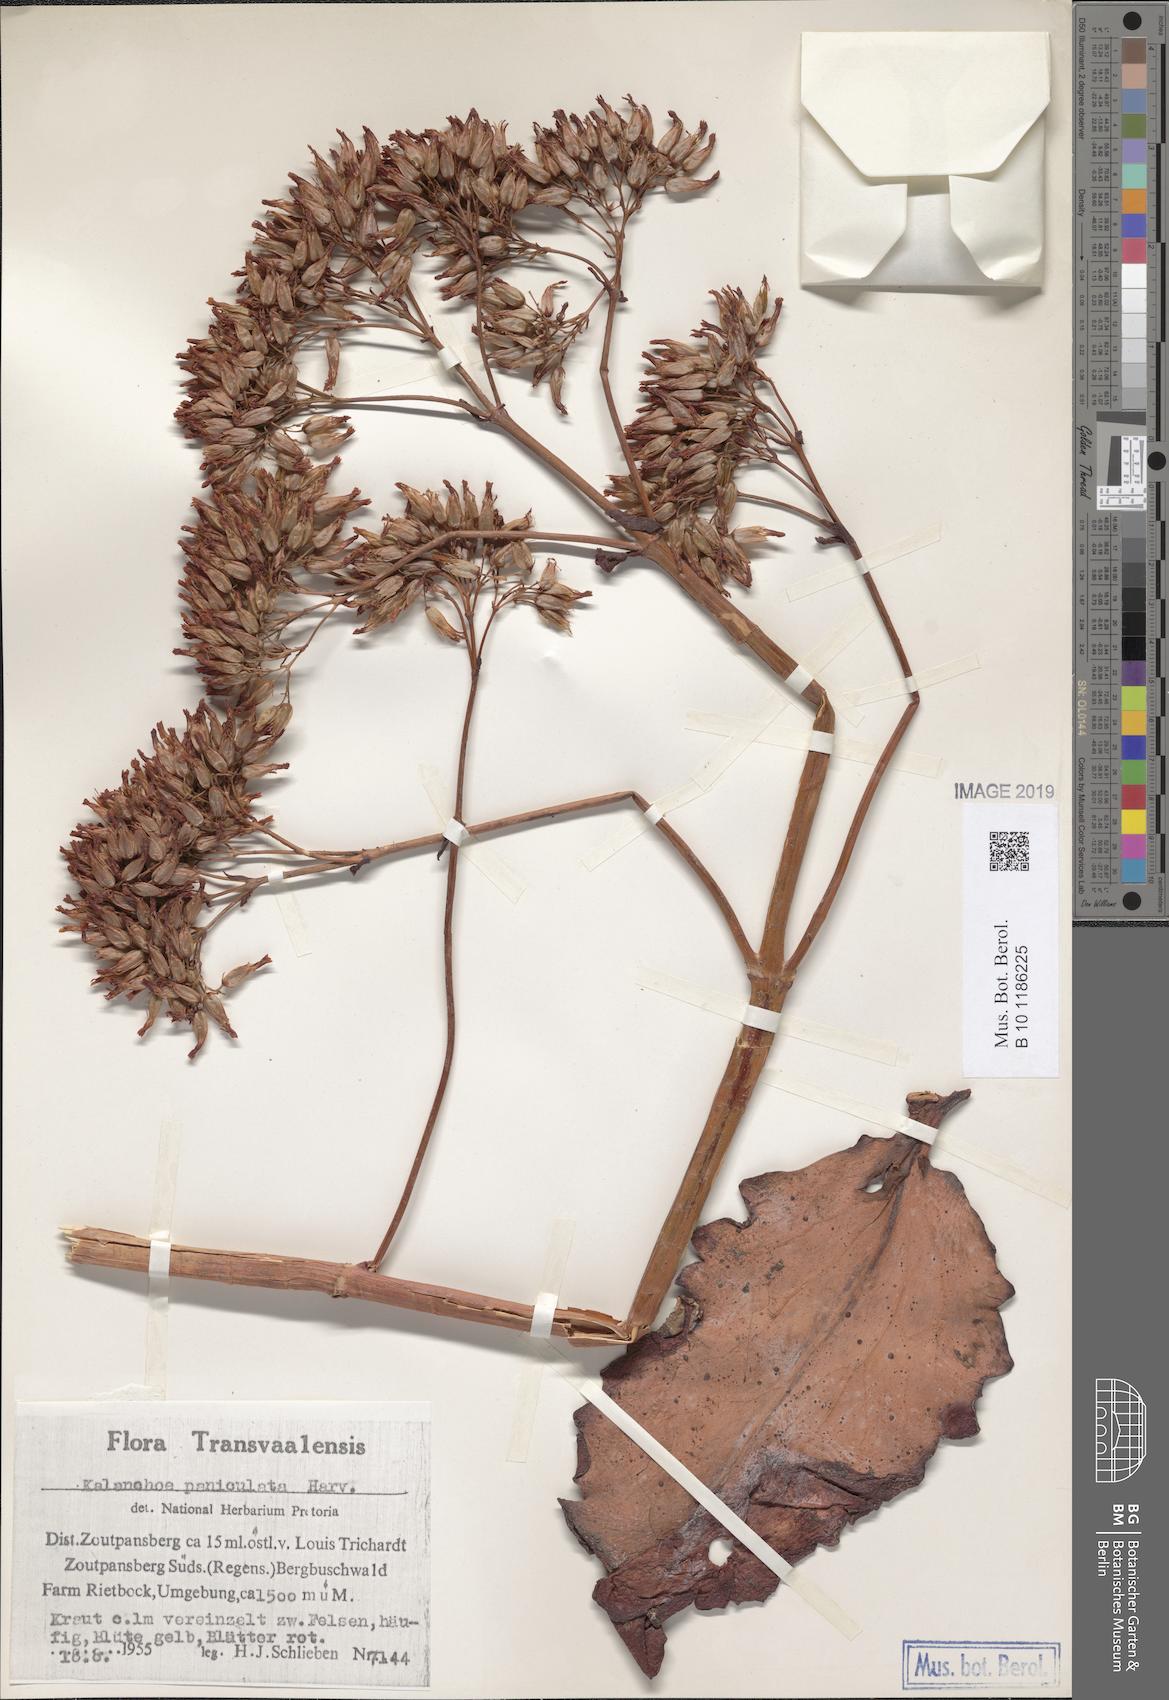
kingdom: Plantae
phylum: Tracheophyta
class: Magnoliopsida
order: Saxifragales
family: Crassulaceae
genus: Kalanchoe
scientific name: Kalanchoe paniculata
